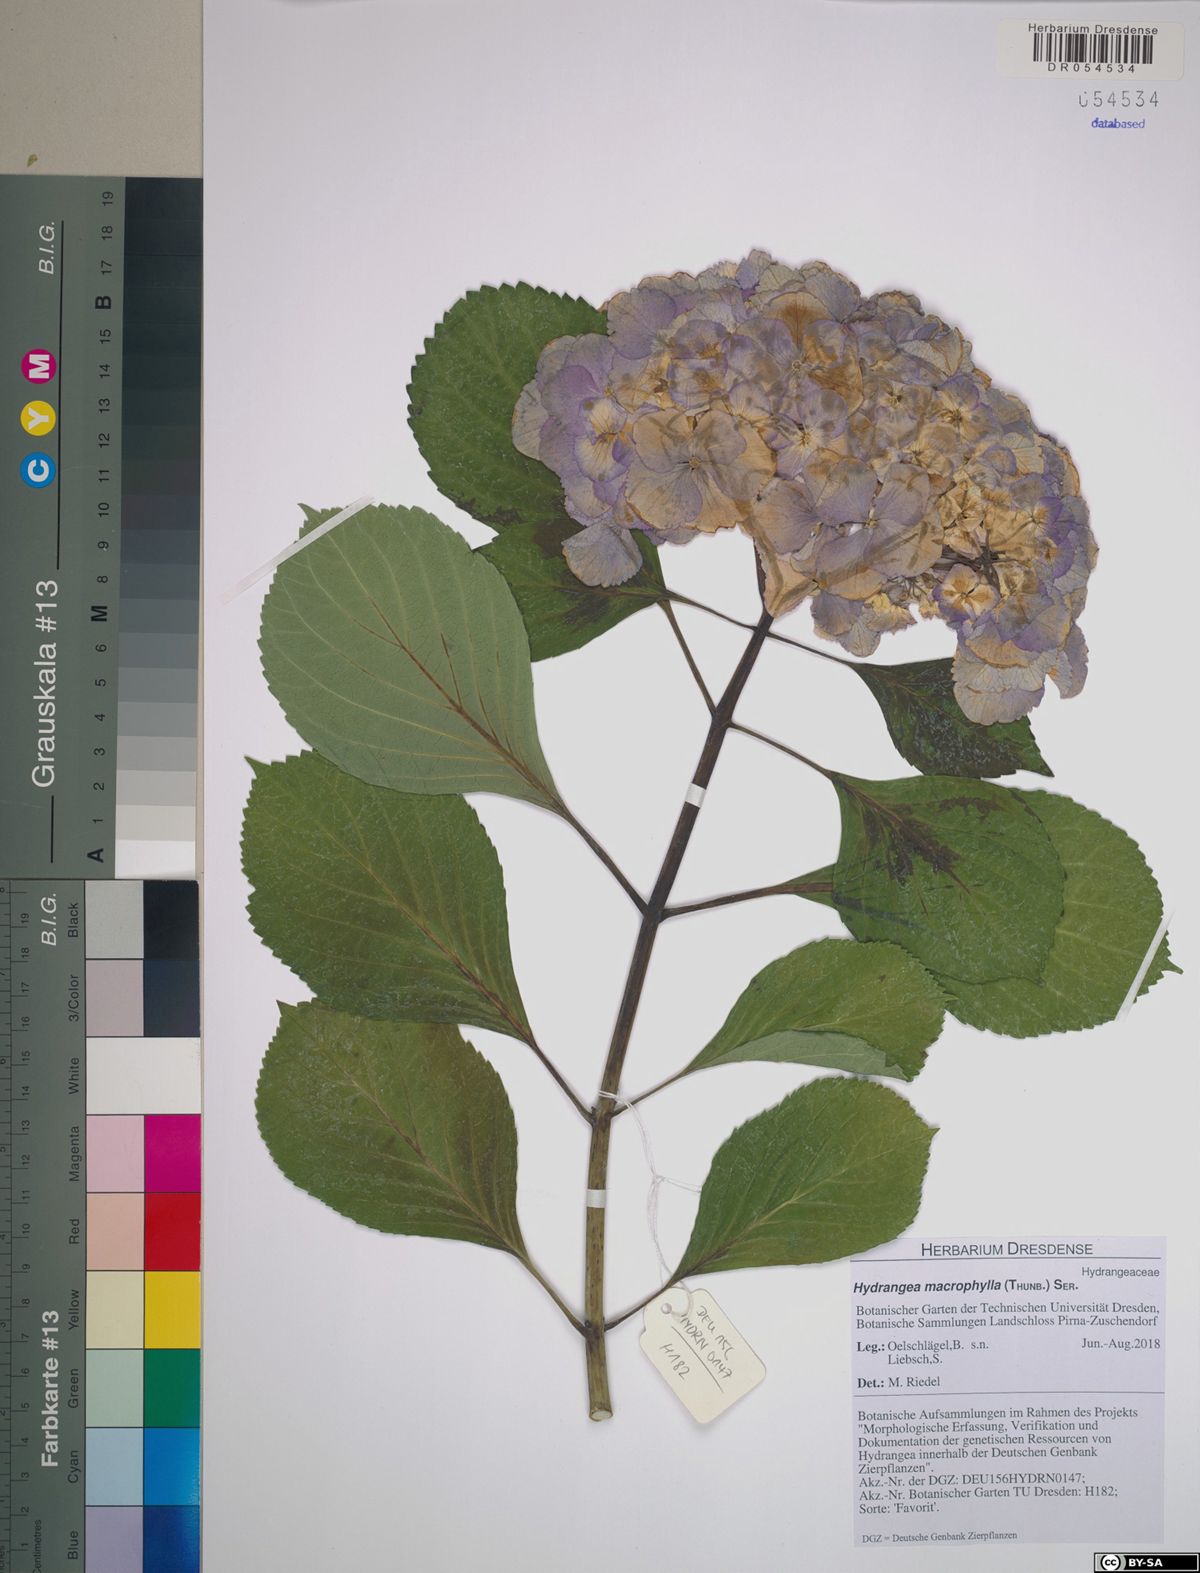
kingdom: Plantae
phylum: Tracheophyta
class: Magnoliopsida
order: Cornales
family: Hydrangeaceae
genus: Hydrangea
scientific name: Hydrangea macrophylla
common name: Hydrangea
